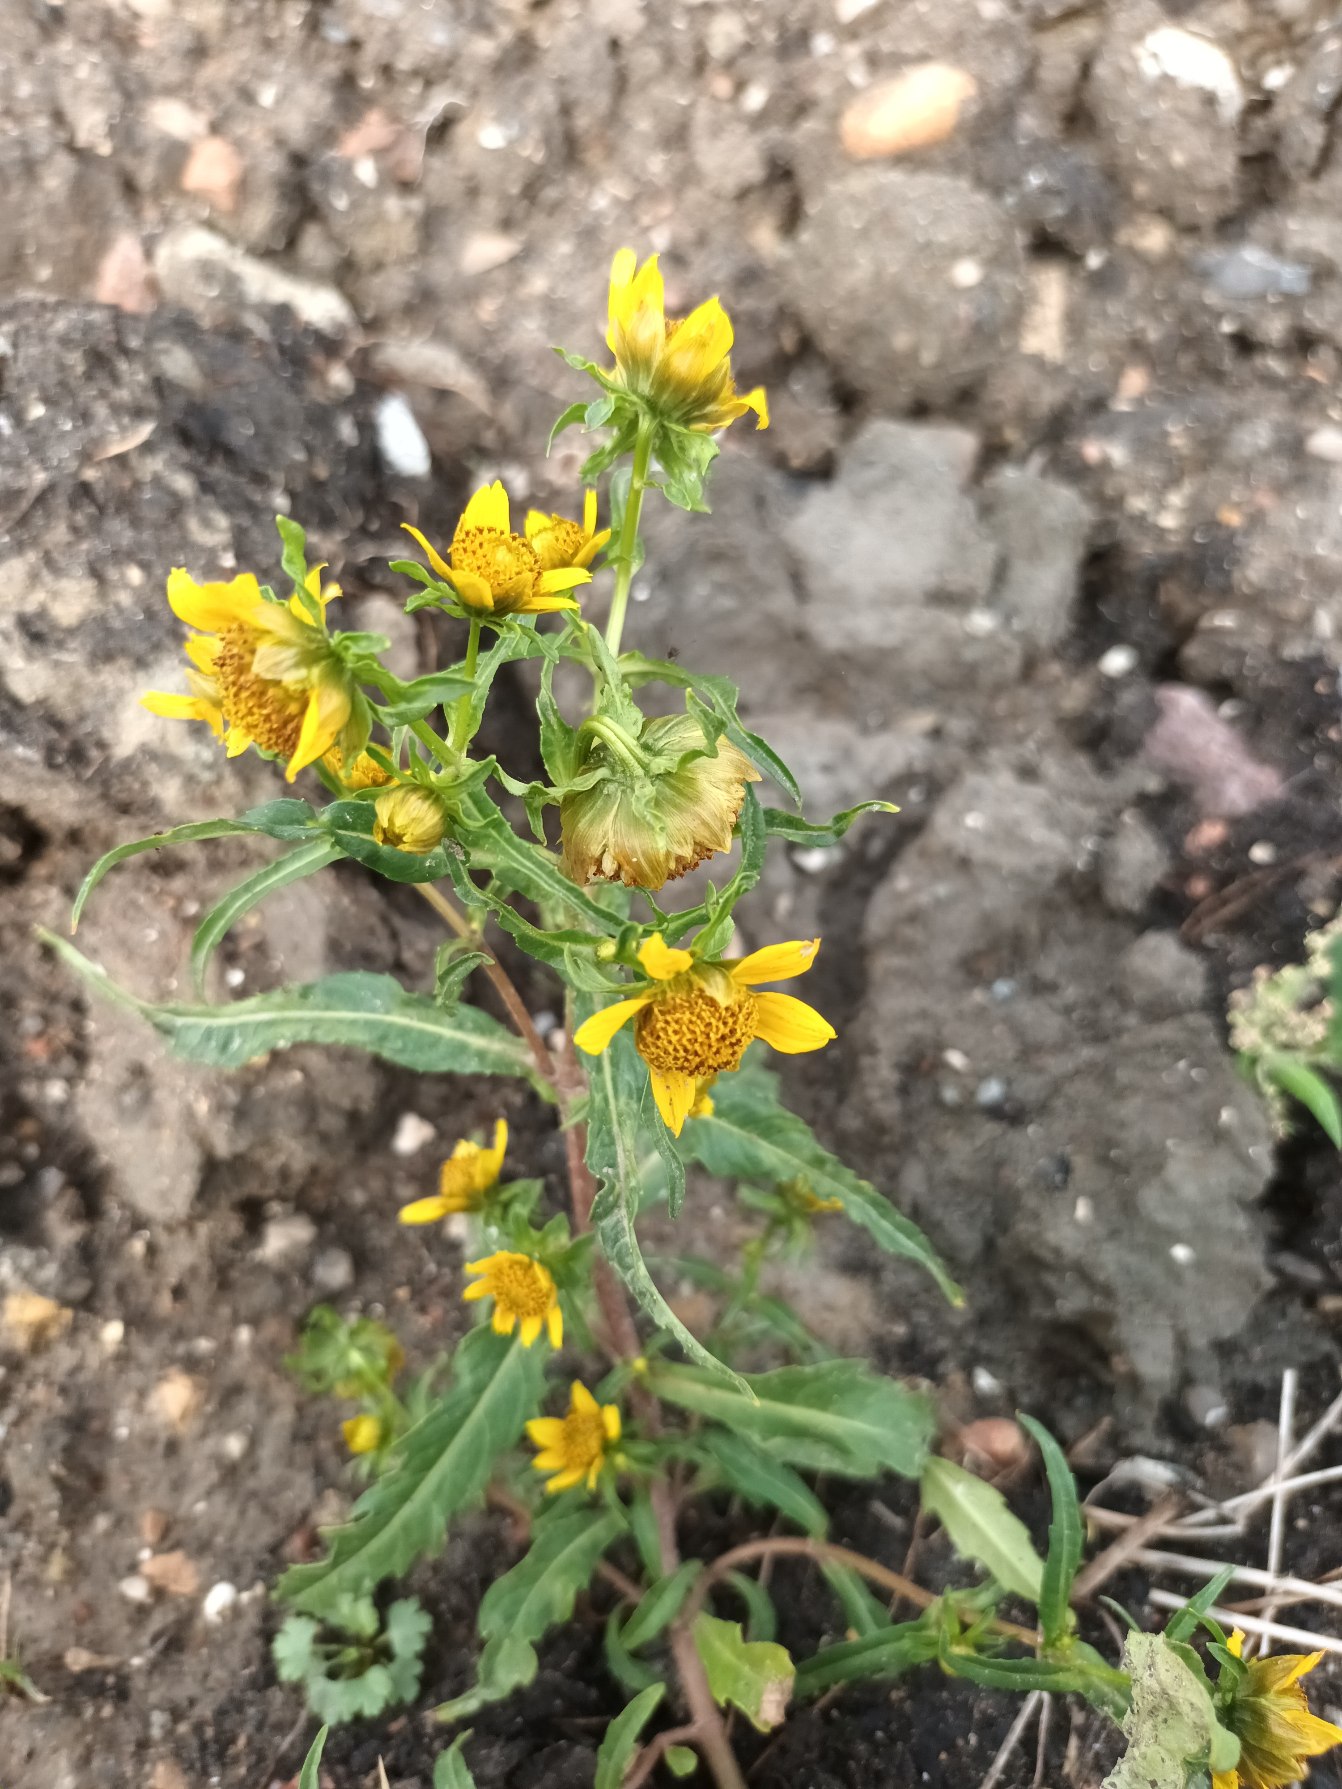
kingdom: Plantae
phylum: Tracheophyta
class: Magnoliopsida
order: Asterales
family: Asteraceae
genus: Bidens
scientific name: Bidens cernua
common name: Nikkende brøndsel
